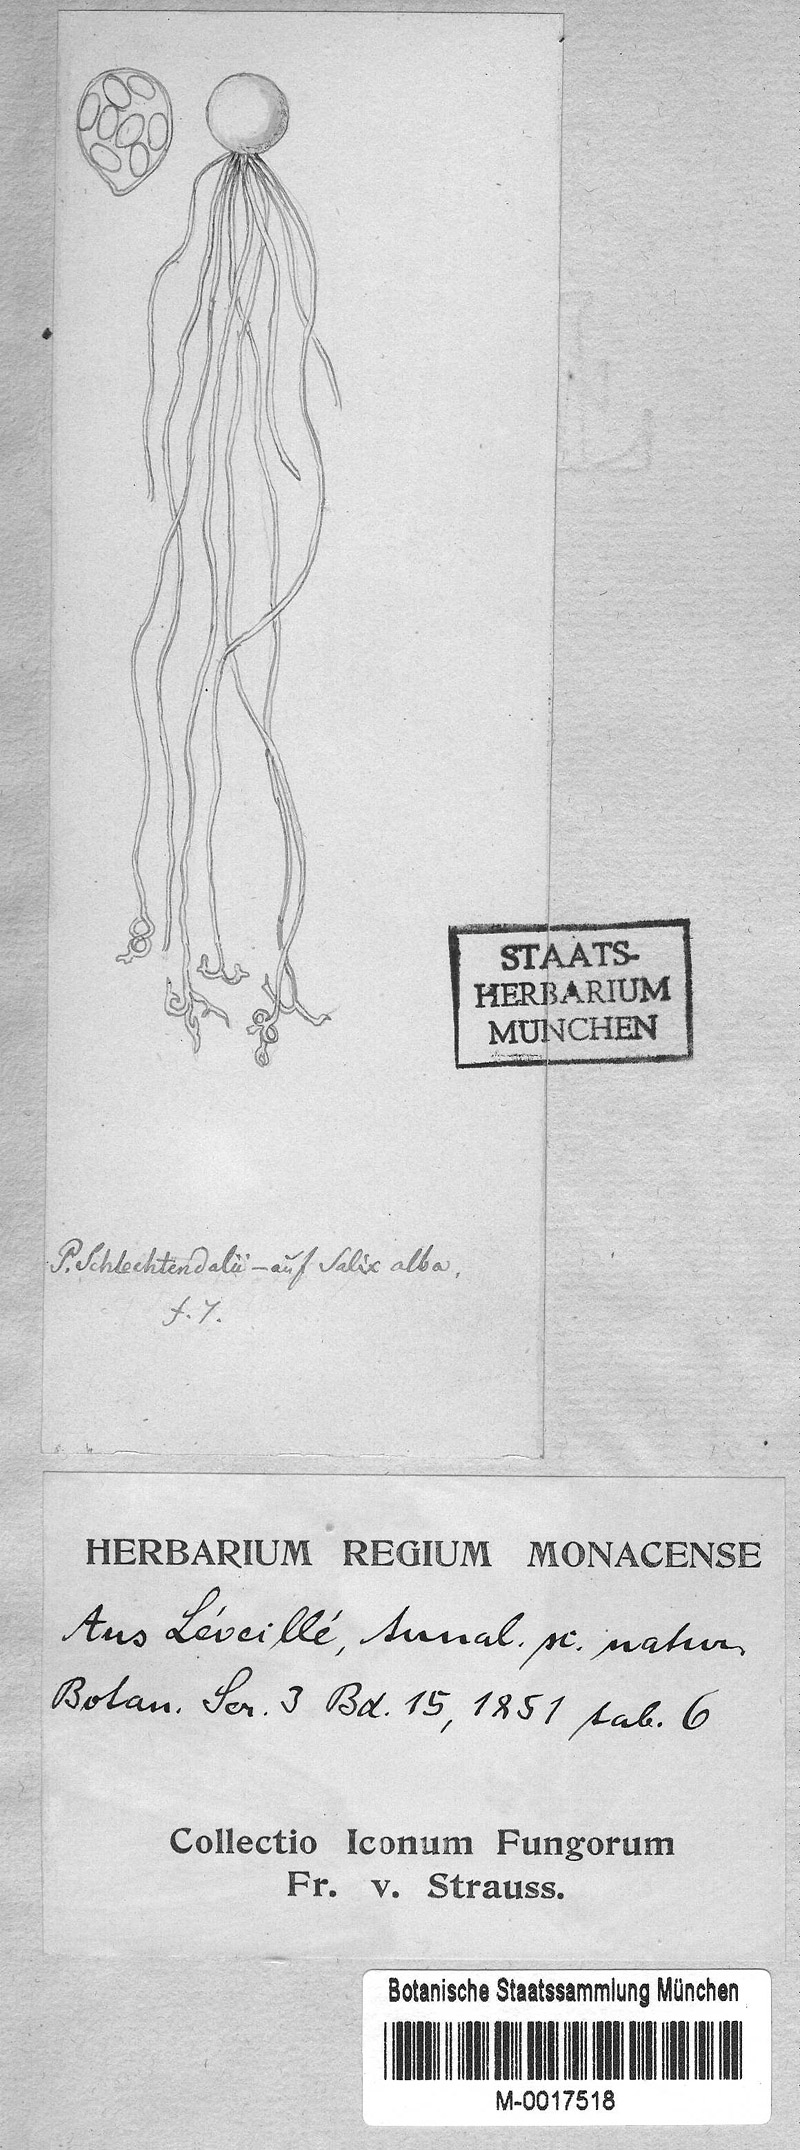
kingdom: Fungi
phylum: Ascomycota
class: Leotiomycetes
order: Helotiales
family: Erysiphaceae
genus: Podosphaera
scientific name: Podosphaera schlechtendalii
